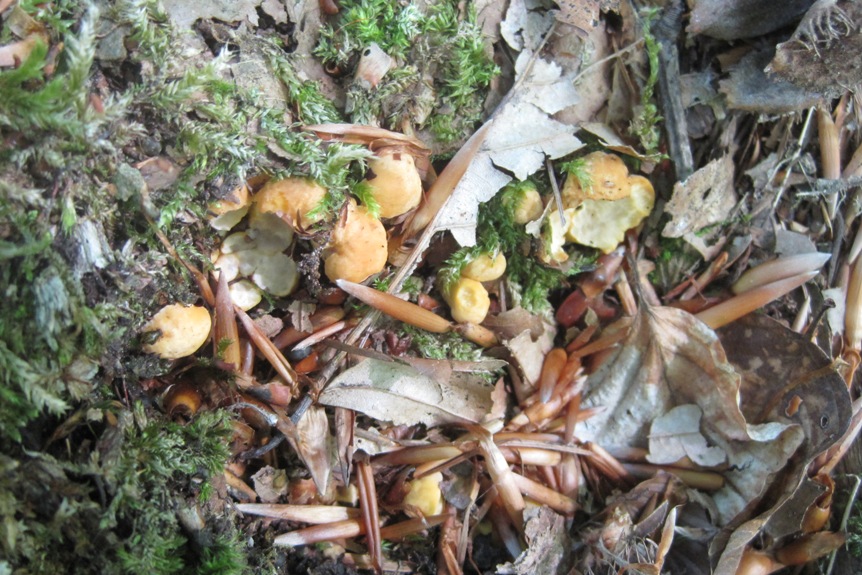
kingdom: Fungi
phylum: Basidiomycota
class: Agaricomycetes
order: Cantharellales
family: Hydnaceae
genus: Cantharellus
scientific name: Cantharellus pallens
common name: bleg kantarel
